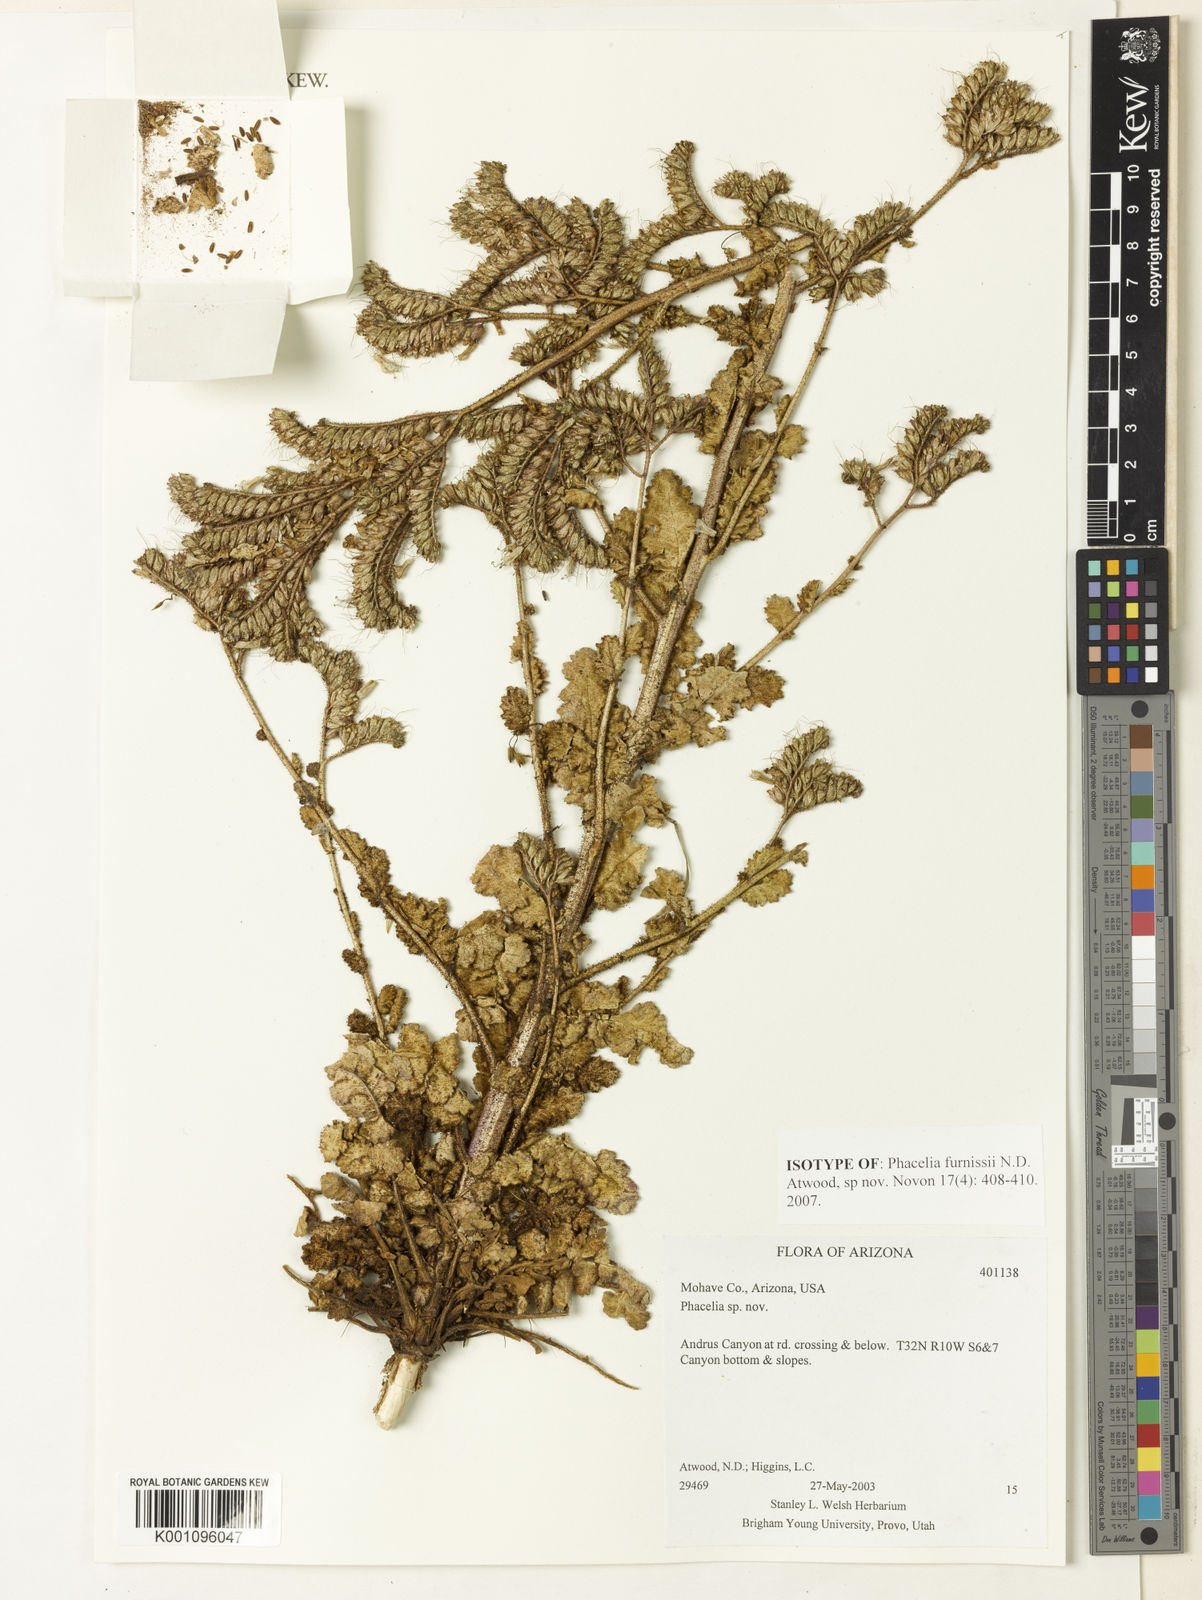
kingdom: Plantae
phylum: Tracheophyta
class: Magnoliopsida
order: Boraginales
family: Hydrophyllaceae
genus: Phacelia
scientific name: Phacelia furnissii
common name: Furniss' phacelia
